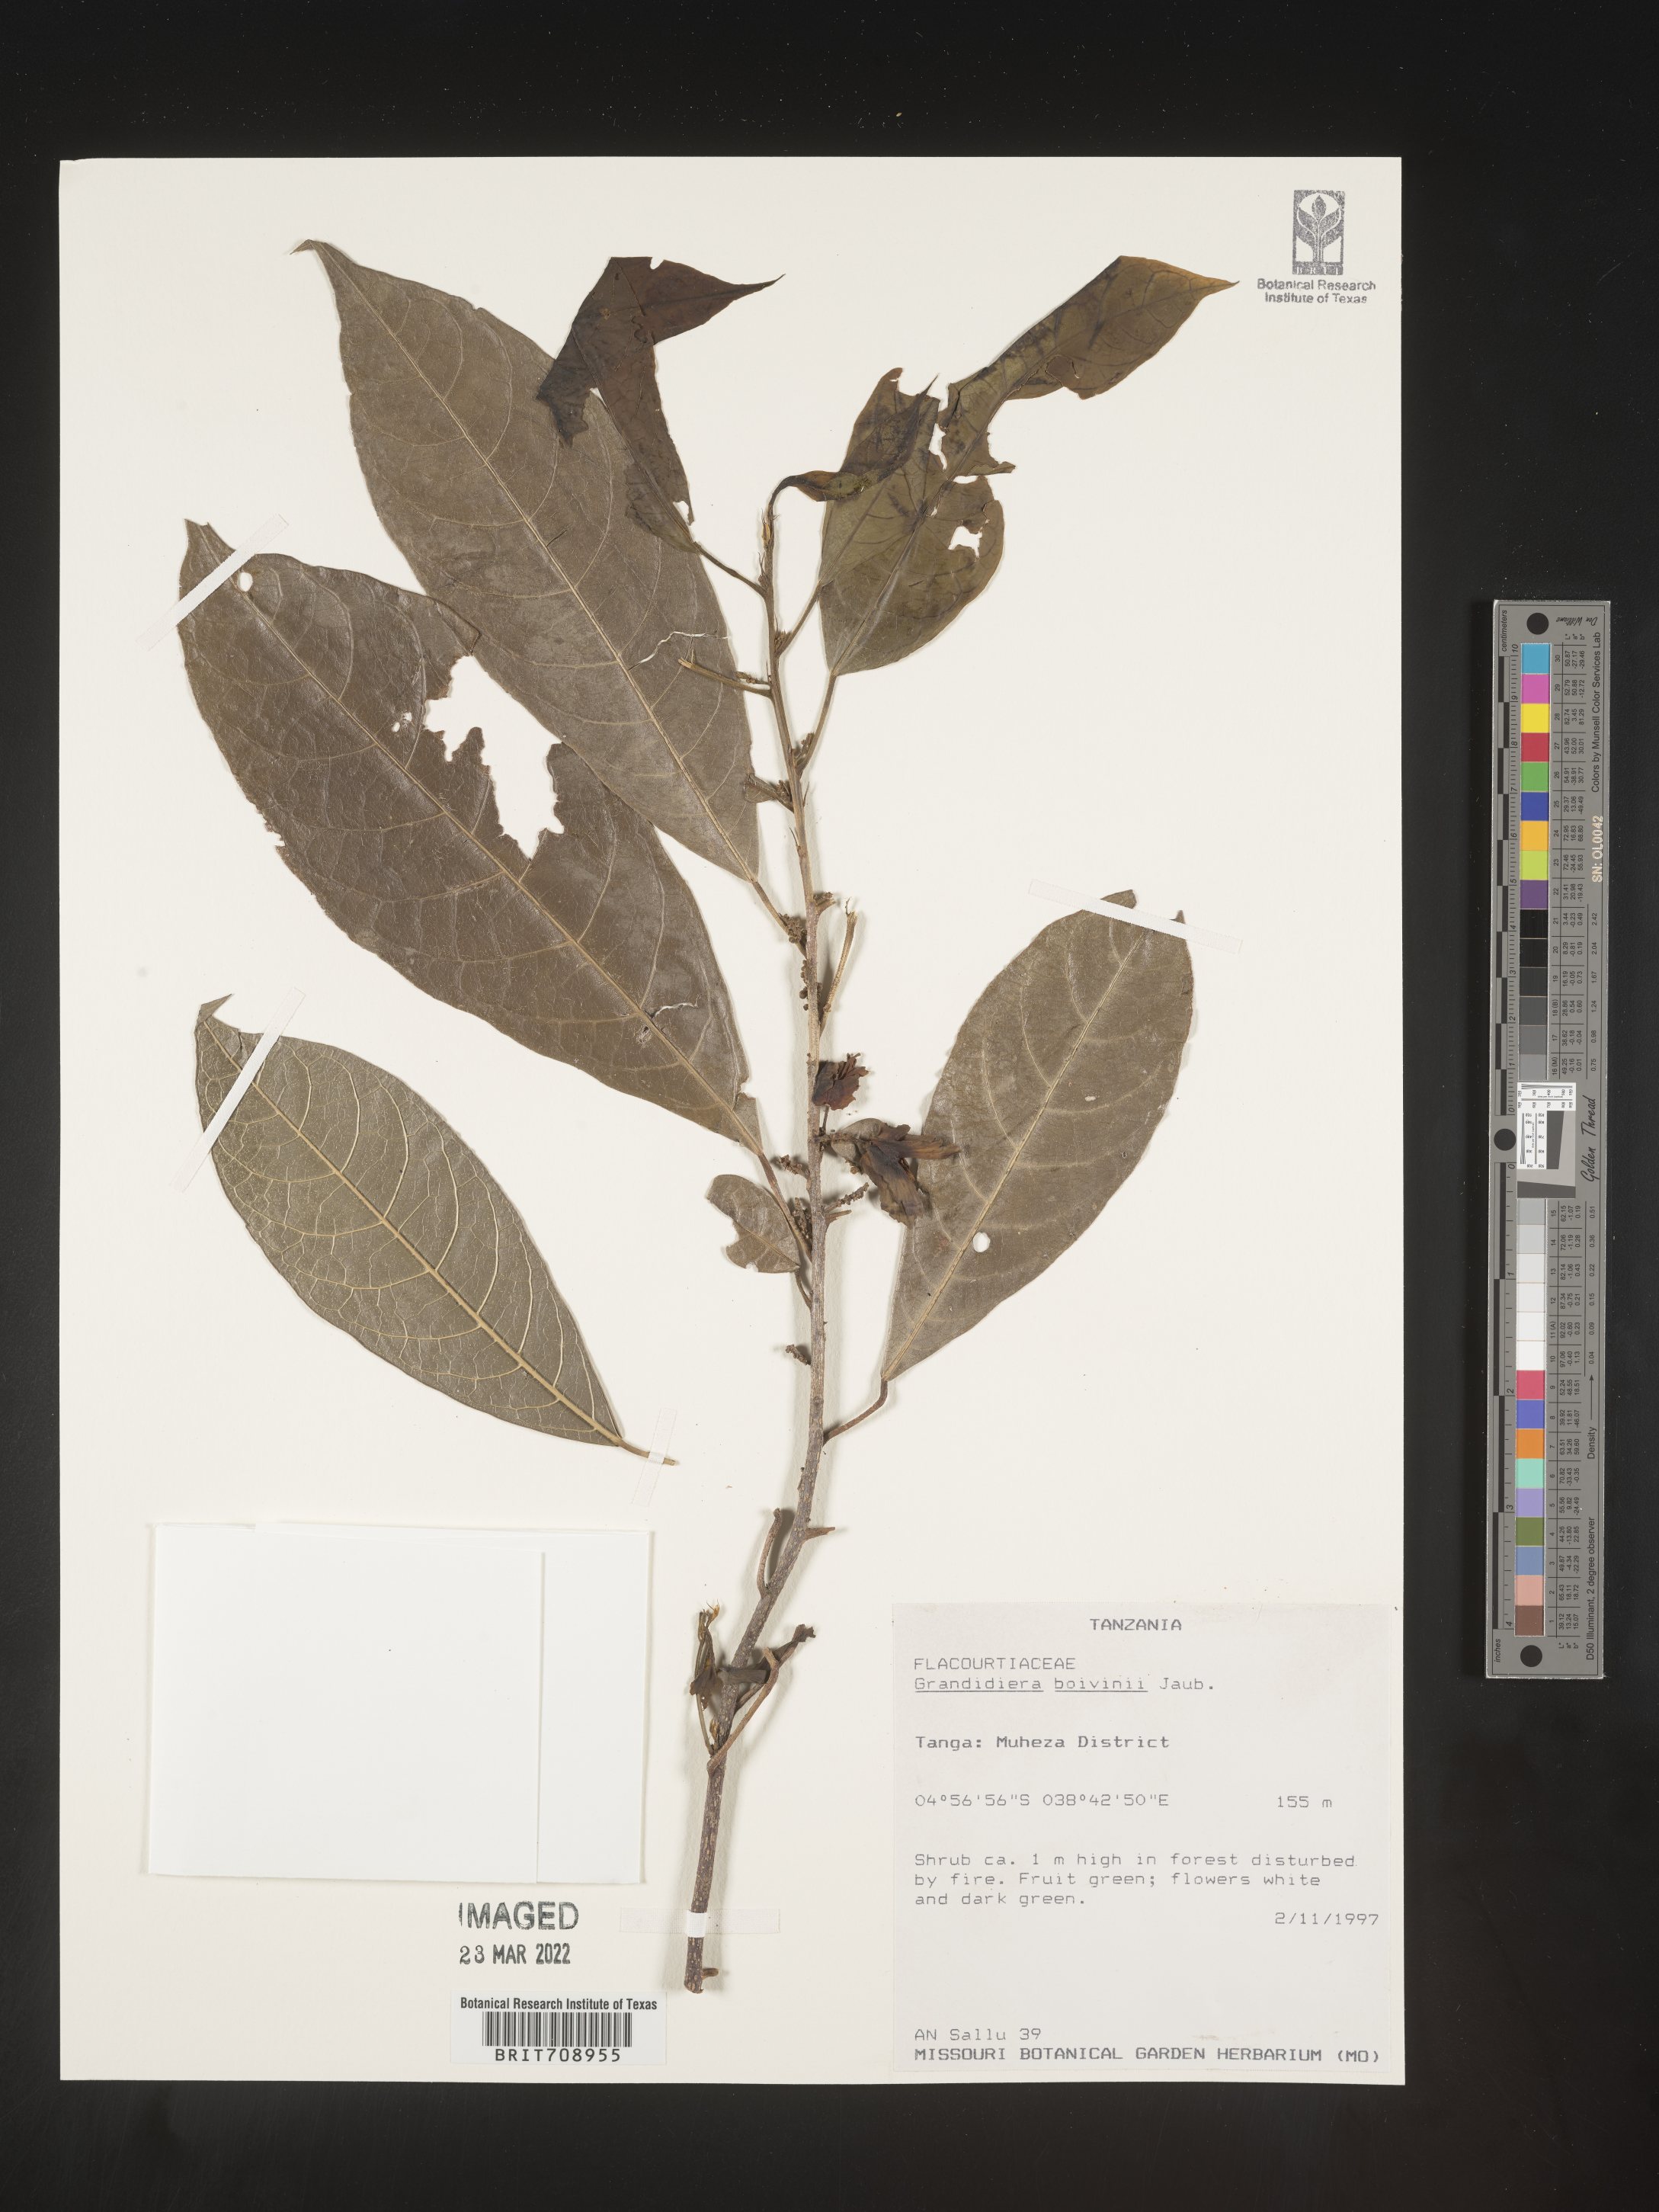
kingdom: Plantae
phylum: Tracheophyta
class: Magnoliopsida
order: Malpighiales
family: Achariaceae
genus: Grandidiera
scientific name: Grandidiera
